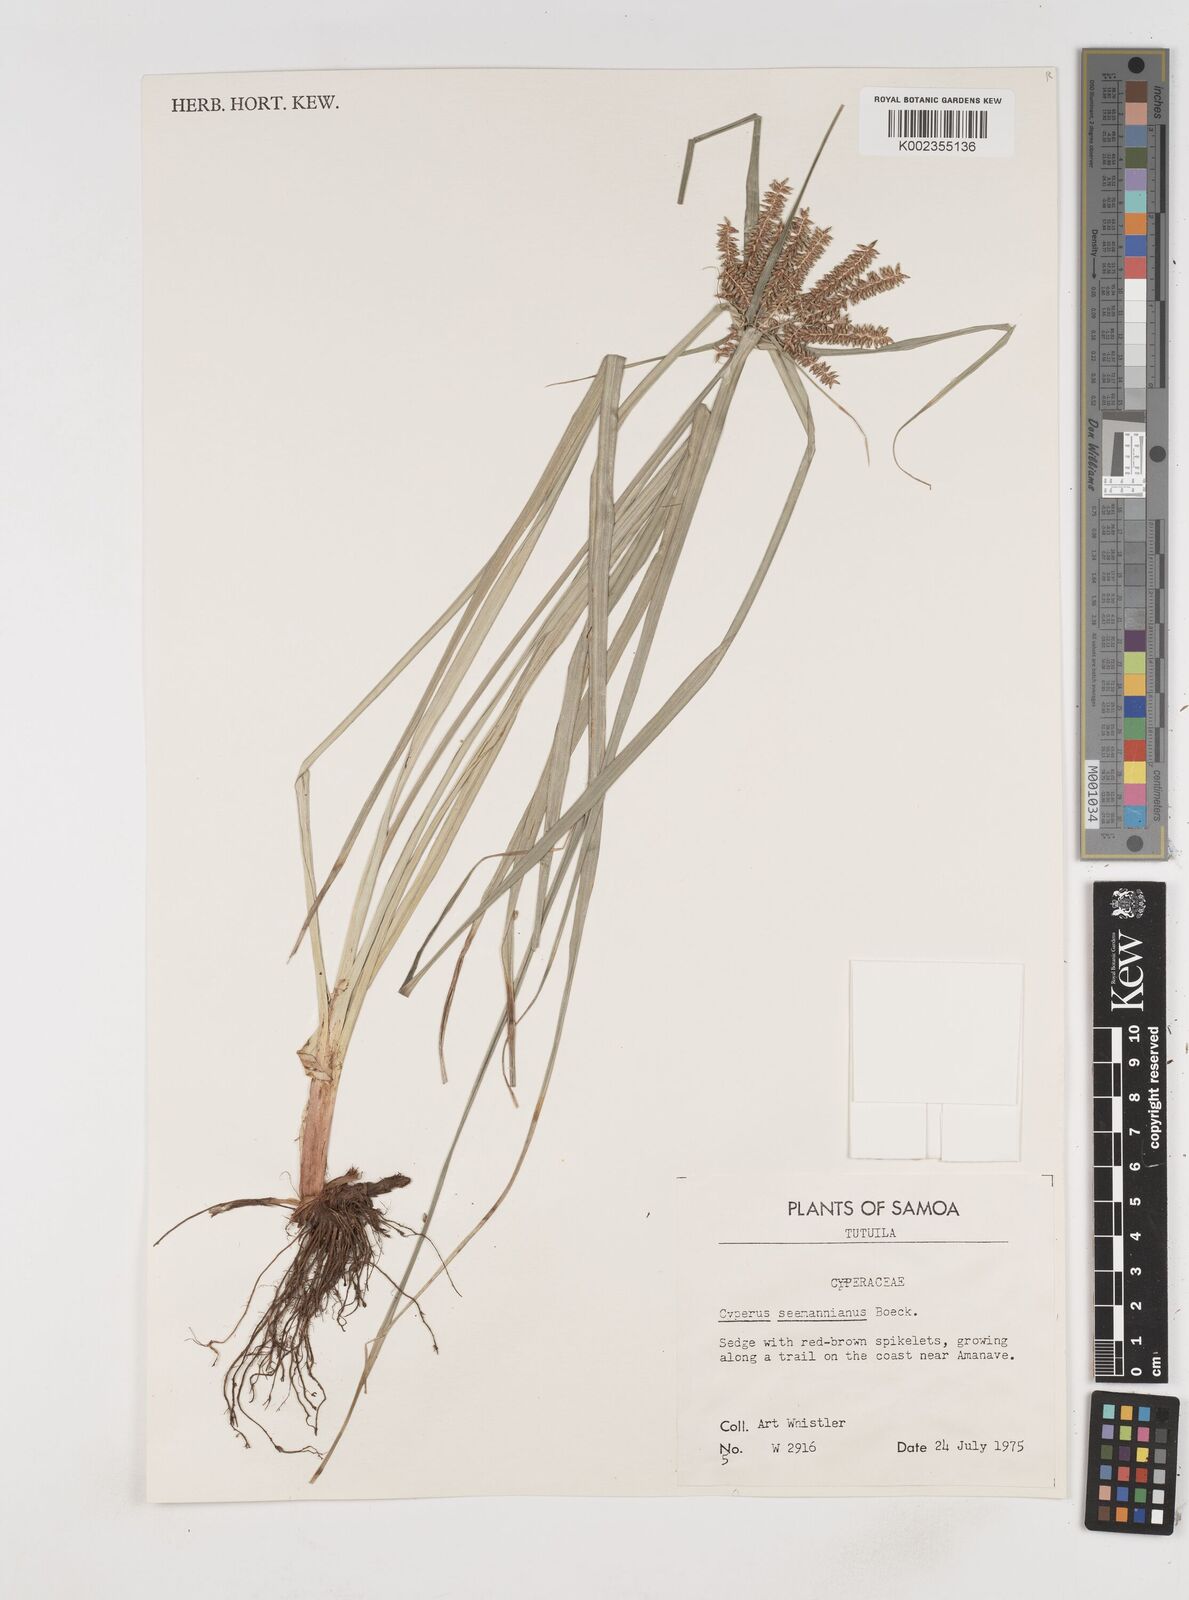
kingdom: Plantae
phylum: Tracheophyta
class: Liliopsida
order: Poales
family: Cyperaceae
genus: Cyperus
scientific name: Cyperus seemannianus
